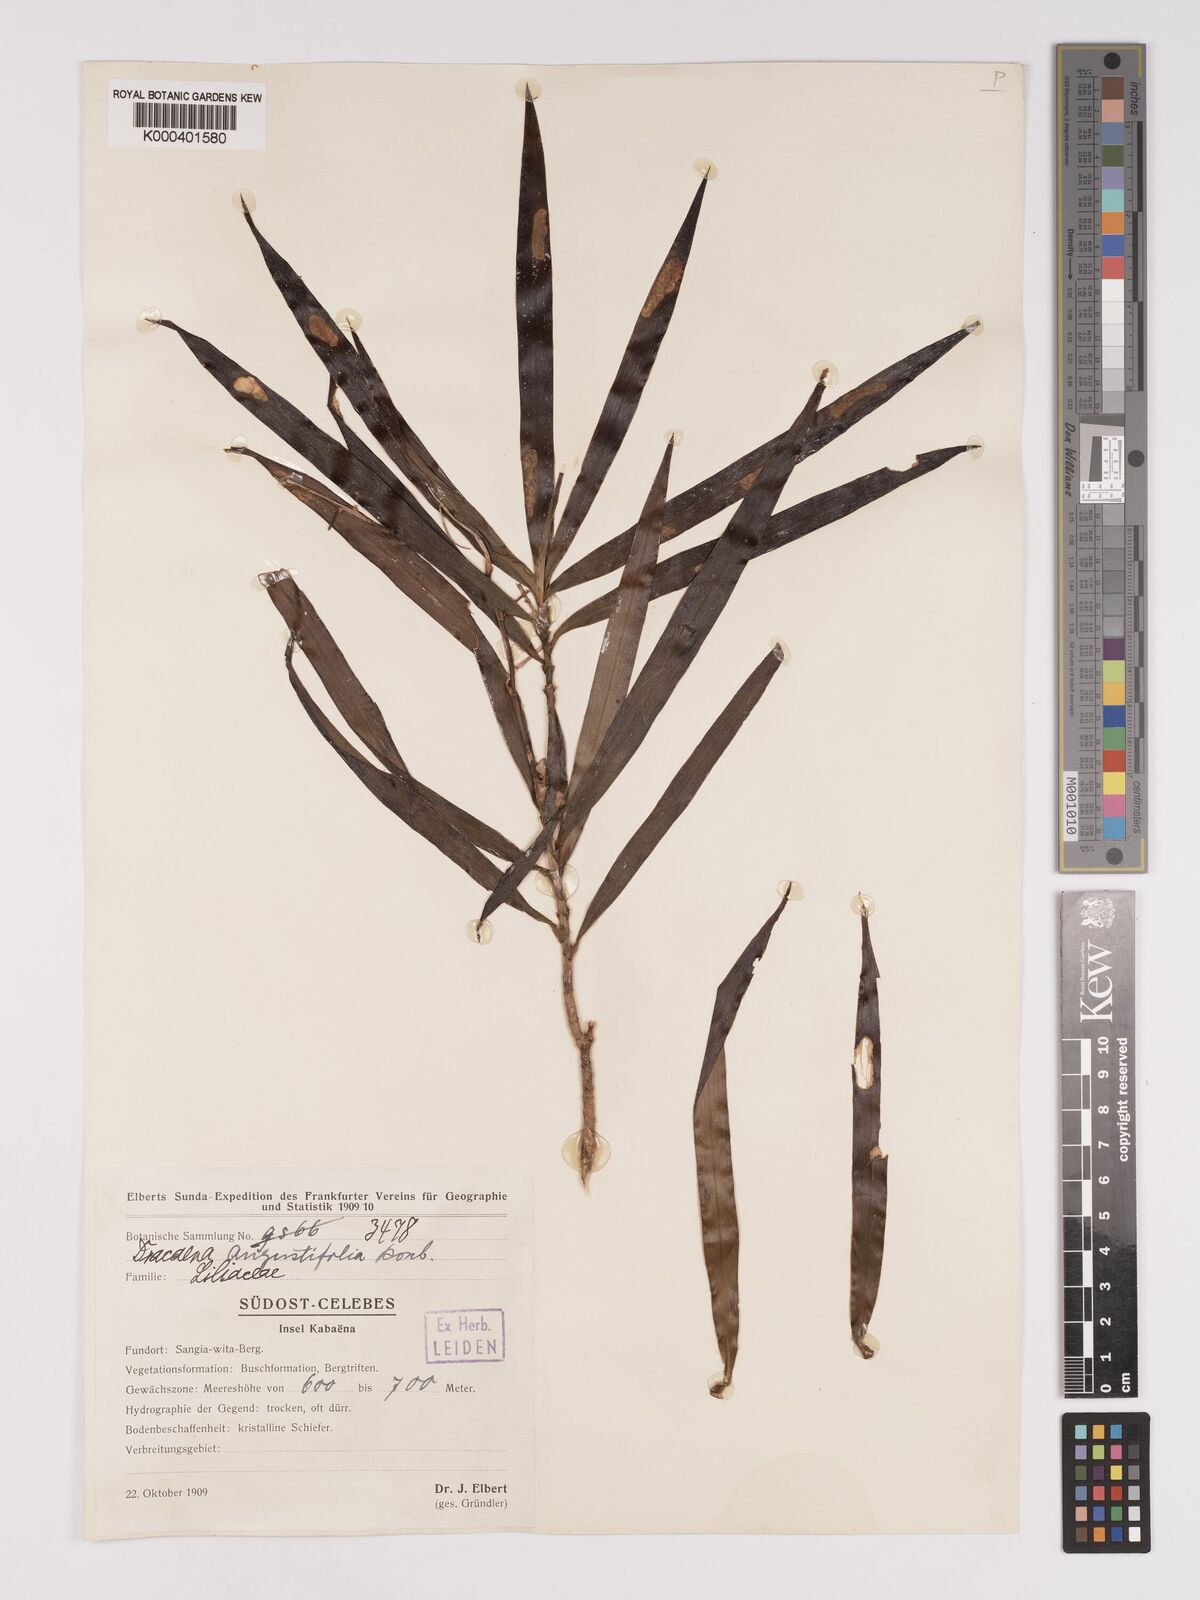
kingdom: Plantae
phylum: Tracheophyta
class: Liliopsida
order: Asparagales
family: Asparagaceae
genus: Dracaena
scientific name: Dracaena angustifolia
